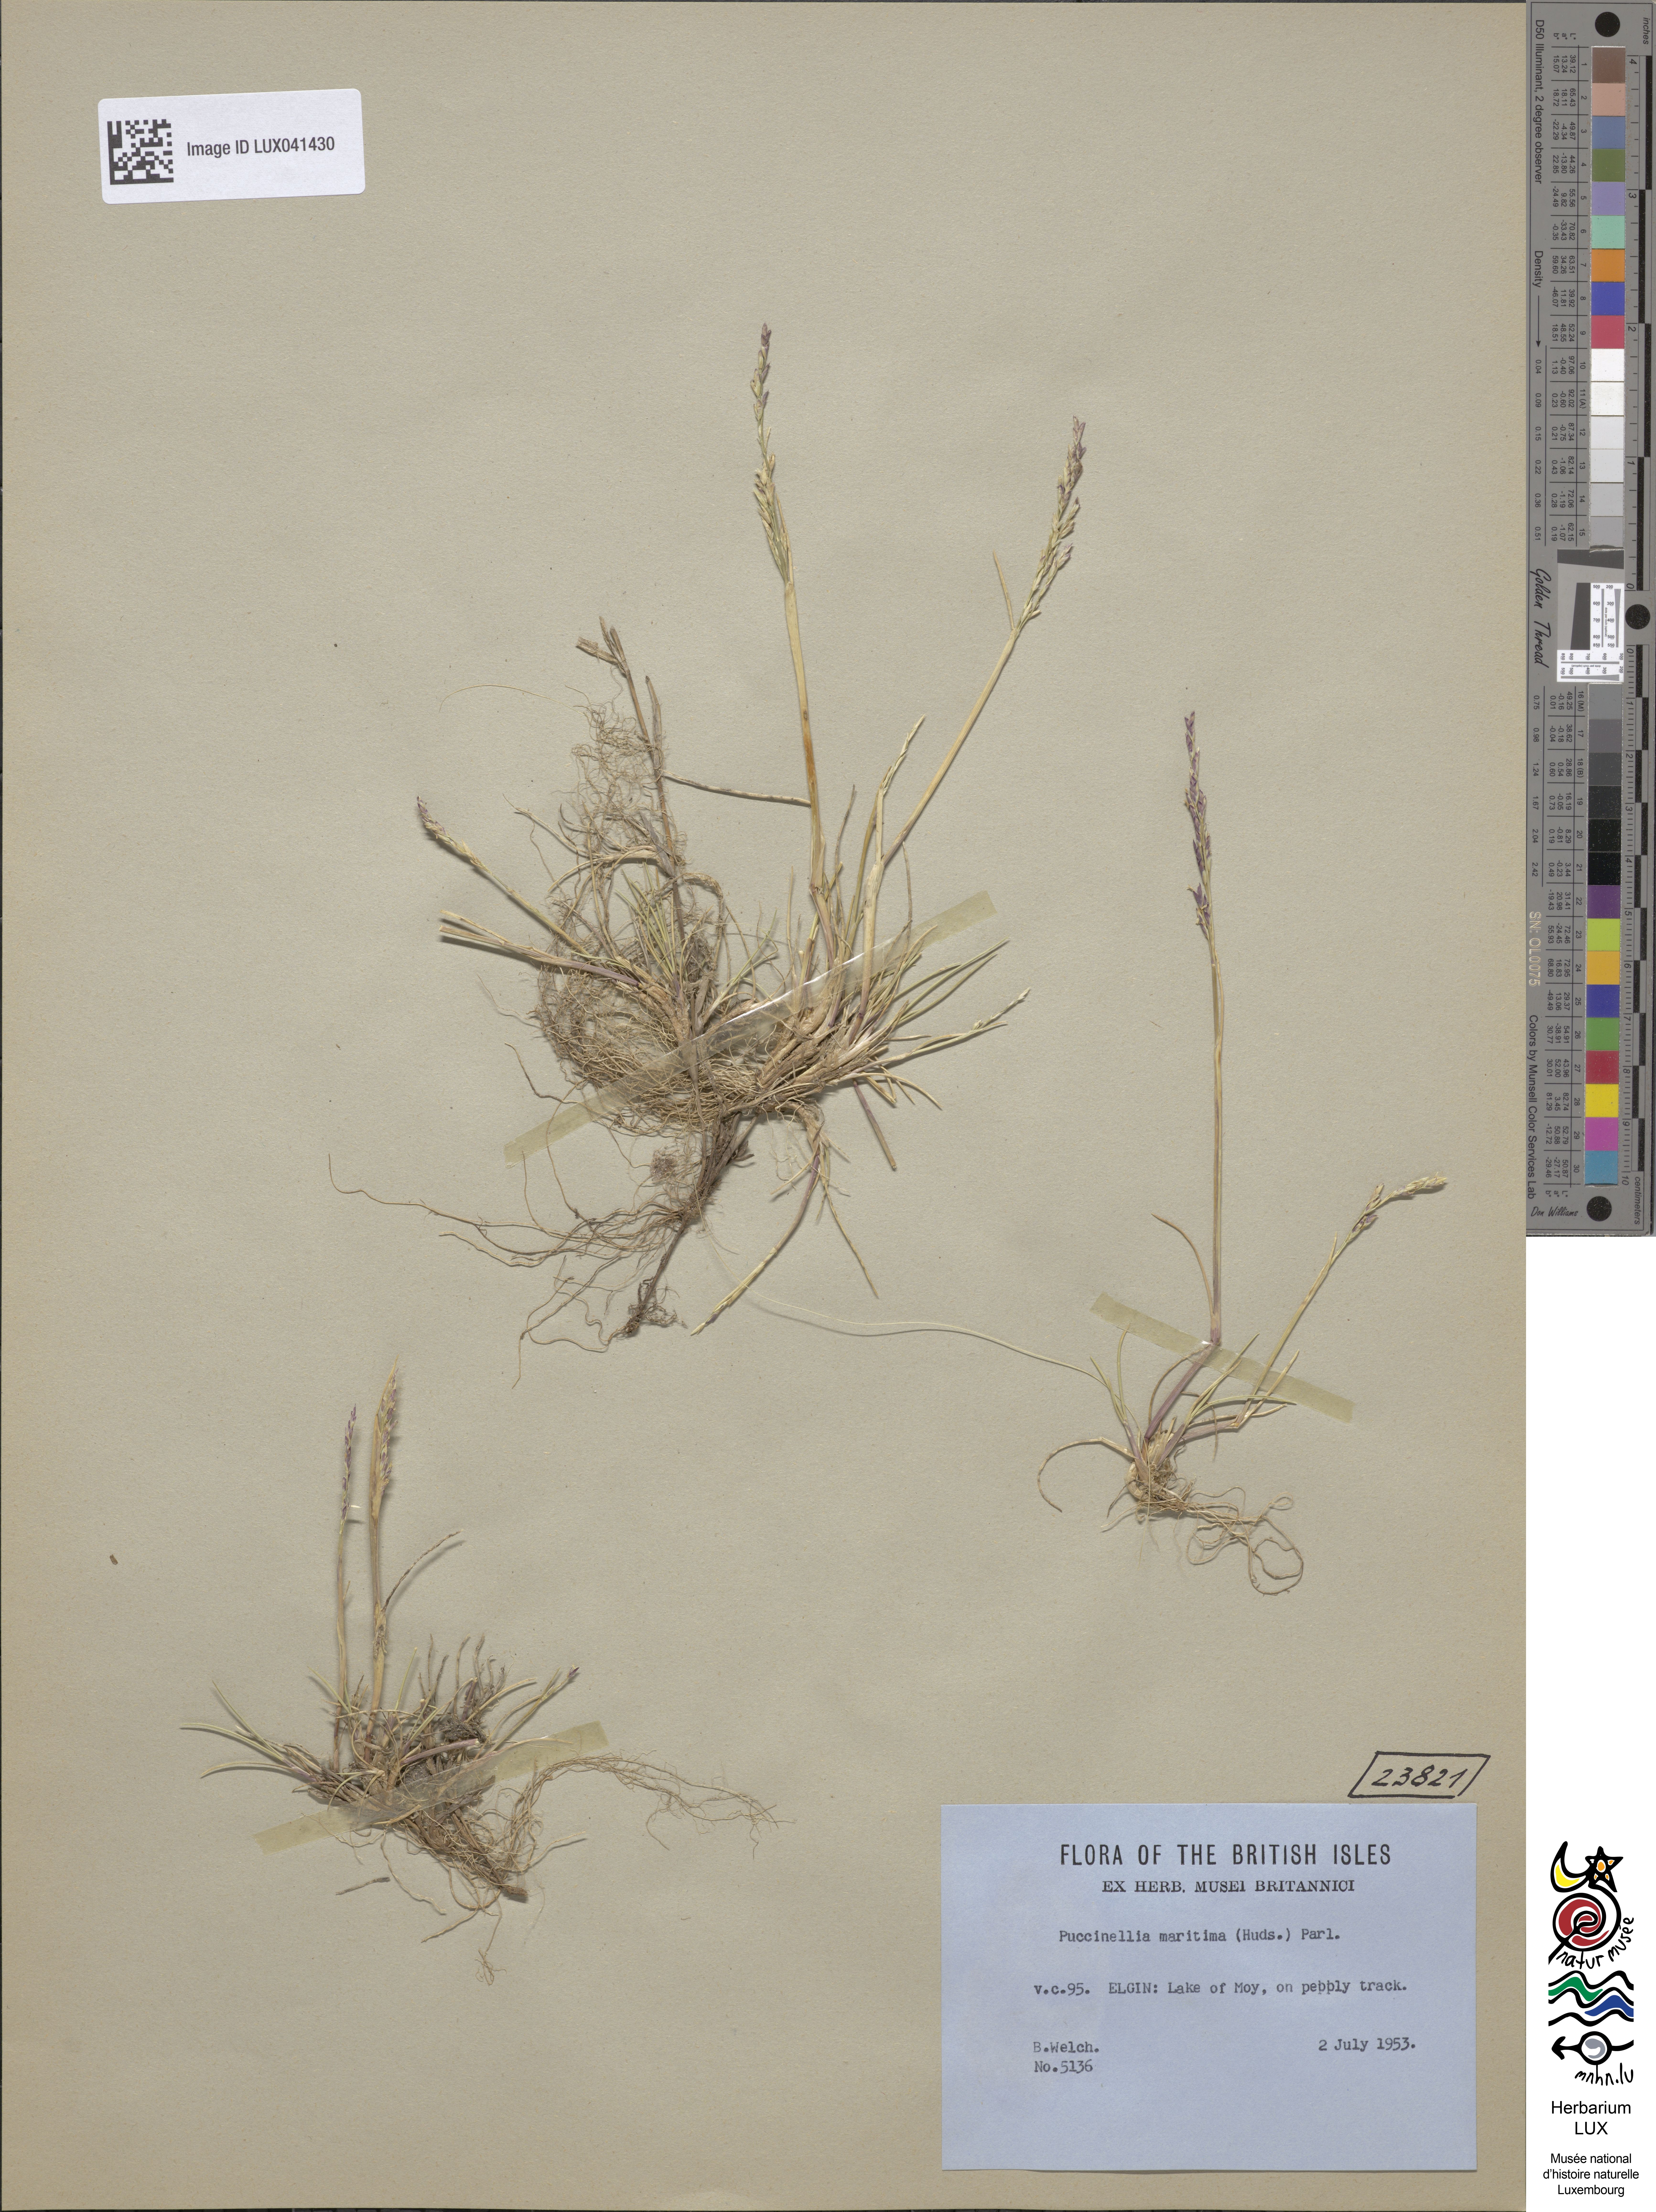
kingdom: Plantae
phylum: Tracheophyta
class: Liliopsida
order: Poales
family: Poaceae
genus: Puccinellia
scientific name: Puccinellia maritima
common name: Common saltmarsh grass
